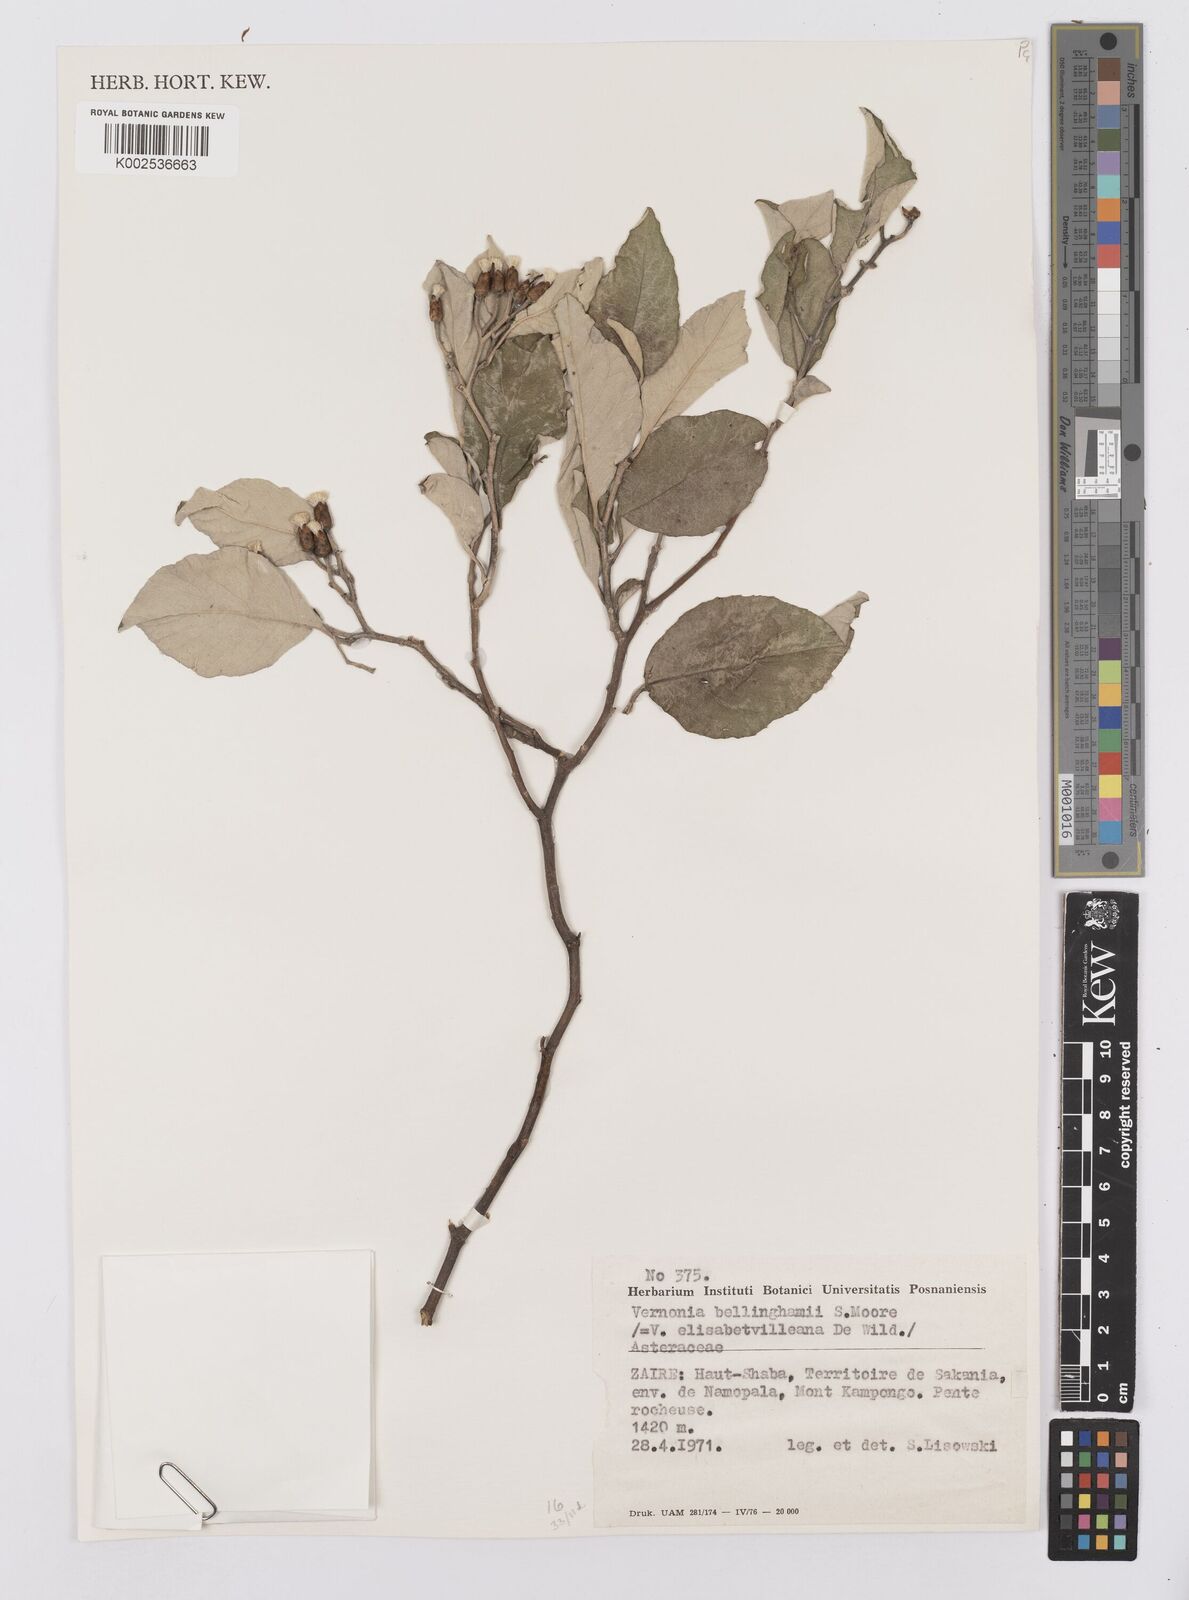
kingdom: Plantae
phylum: Tracheophyta
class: Magnoliopsida
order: Asterales
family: Asteraceae
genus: Gymnanthemum
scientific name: Gymnanthemum bellinghamii
